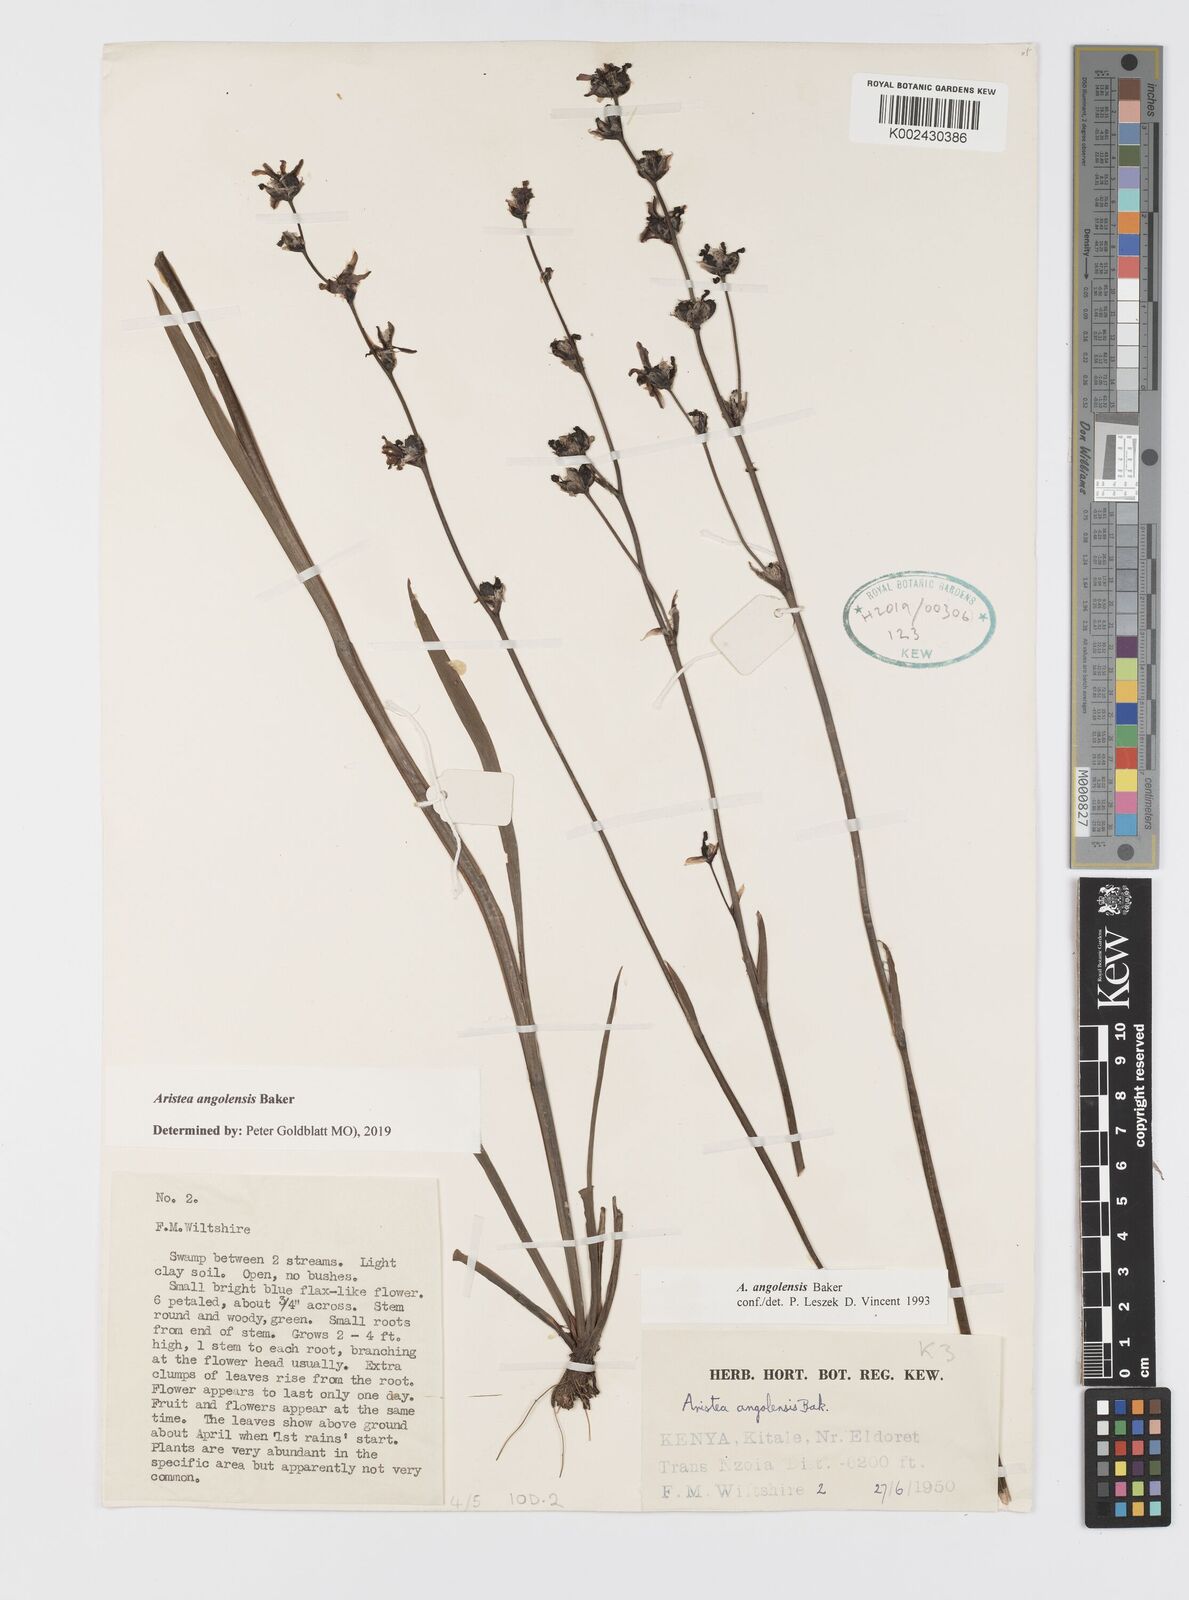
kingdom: Plantae
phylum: Tracheophyta
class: Liliopsida
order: Asparagales
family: Iridaceae
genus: Aristea
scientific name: Aristea angolensis
